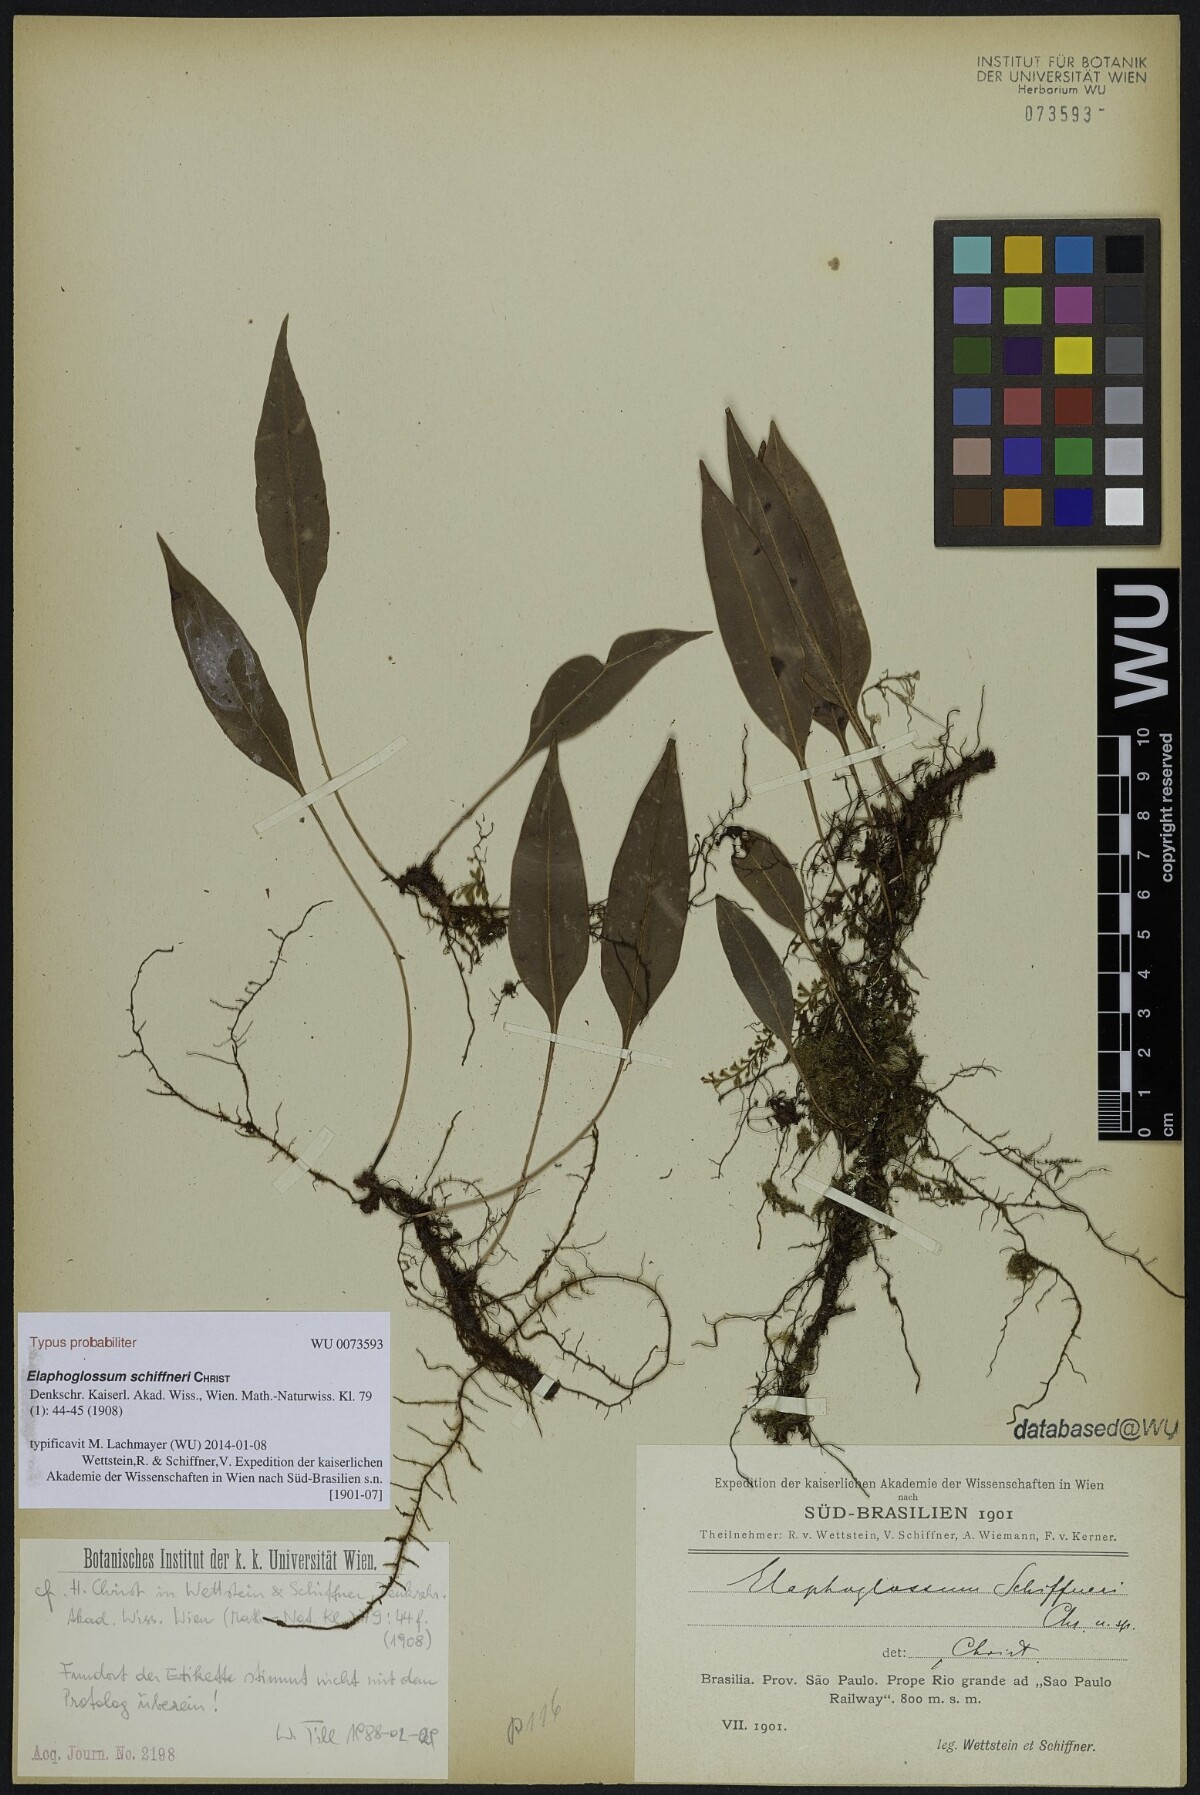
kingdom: Plantae
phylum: Tracheophyta
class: Polypodiopsida
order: Polypodiales
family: Dryopteridaceae
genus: Elaphoglossum
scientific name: Elaphoglossum vagans
